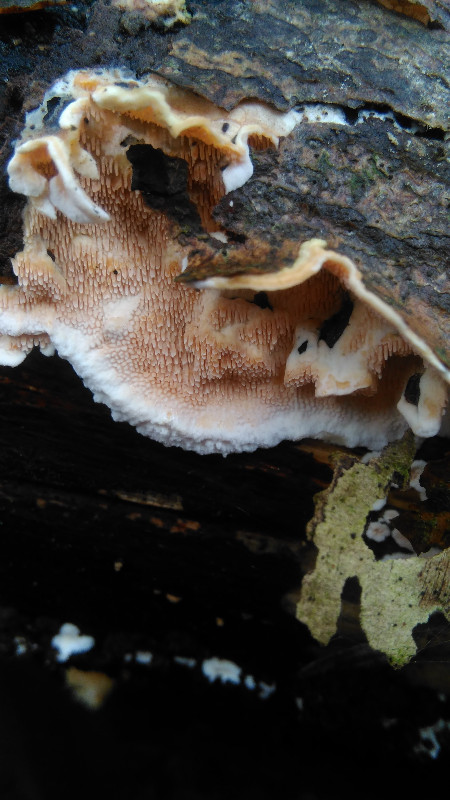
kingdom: Fungi
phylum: Basidiomycota
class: Agaricomycetes
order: Polyporales
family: Steccherinaceae
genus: Steccherinum
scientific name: Steccherinum
